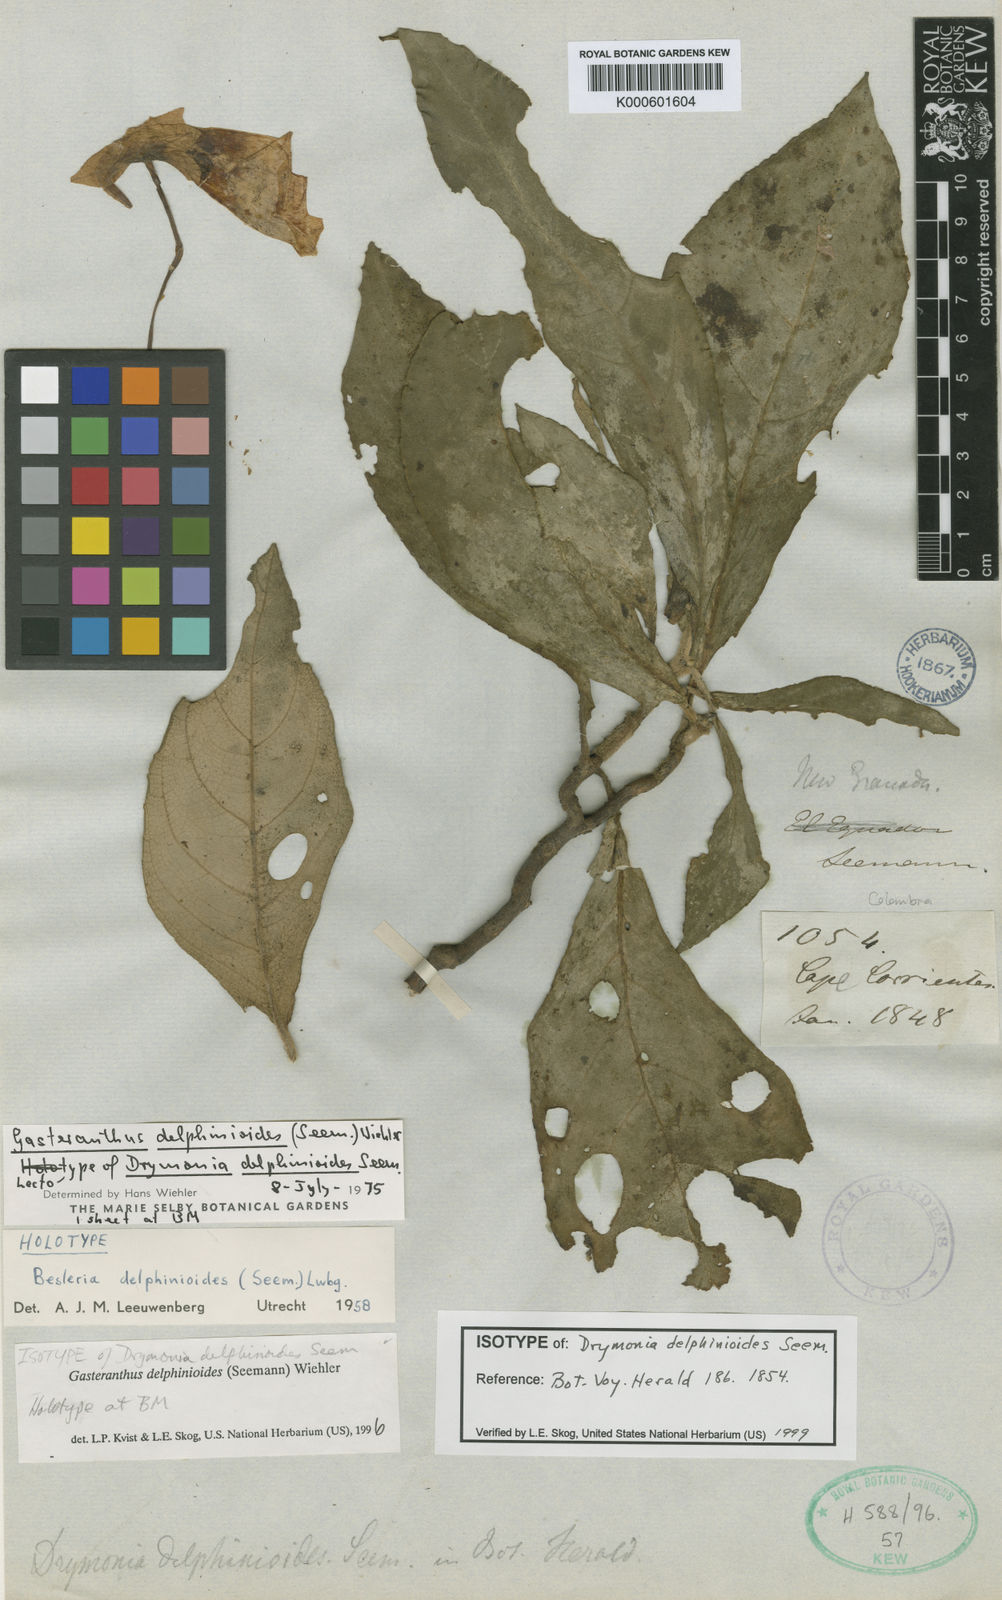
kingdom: Plantae
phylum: Tracheophyta
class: Magnoliopsida
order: Lamiales
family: Gesneriaceae
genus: Gasteranthus
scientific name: Gasteranthus delphinioides
